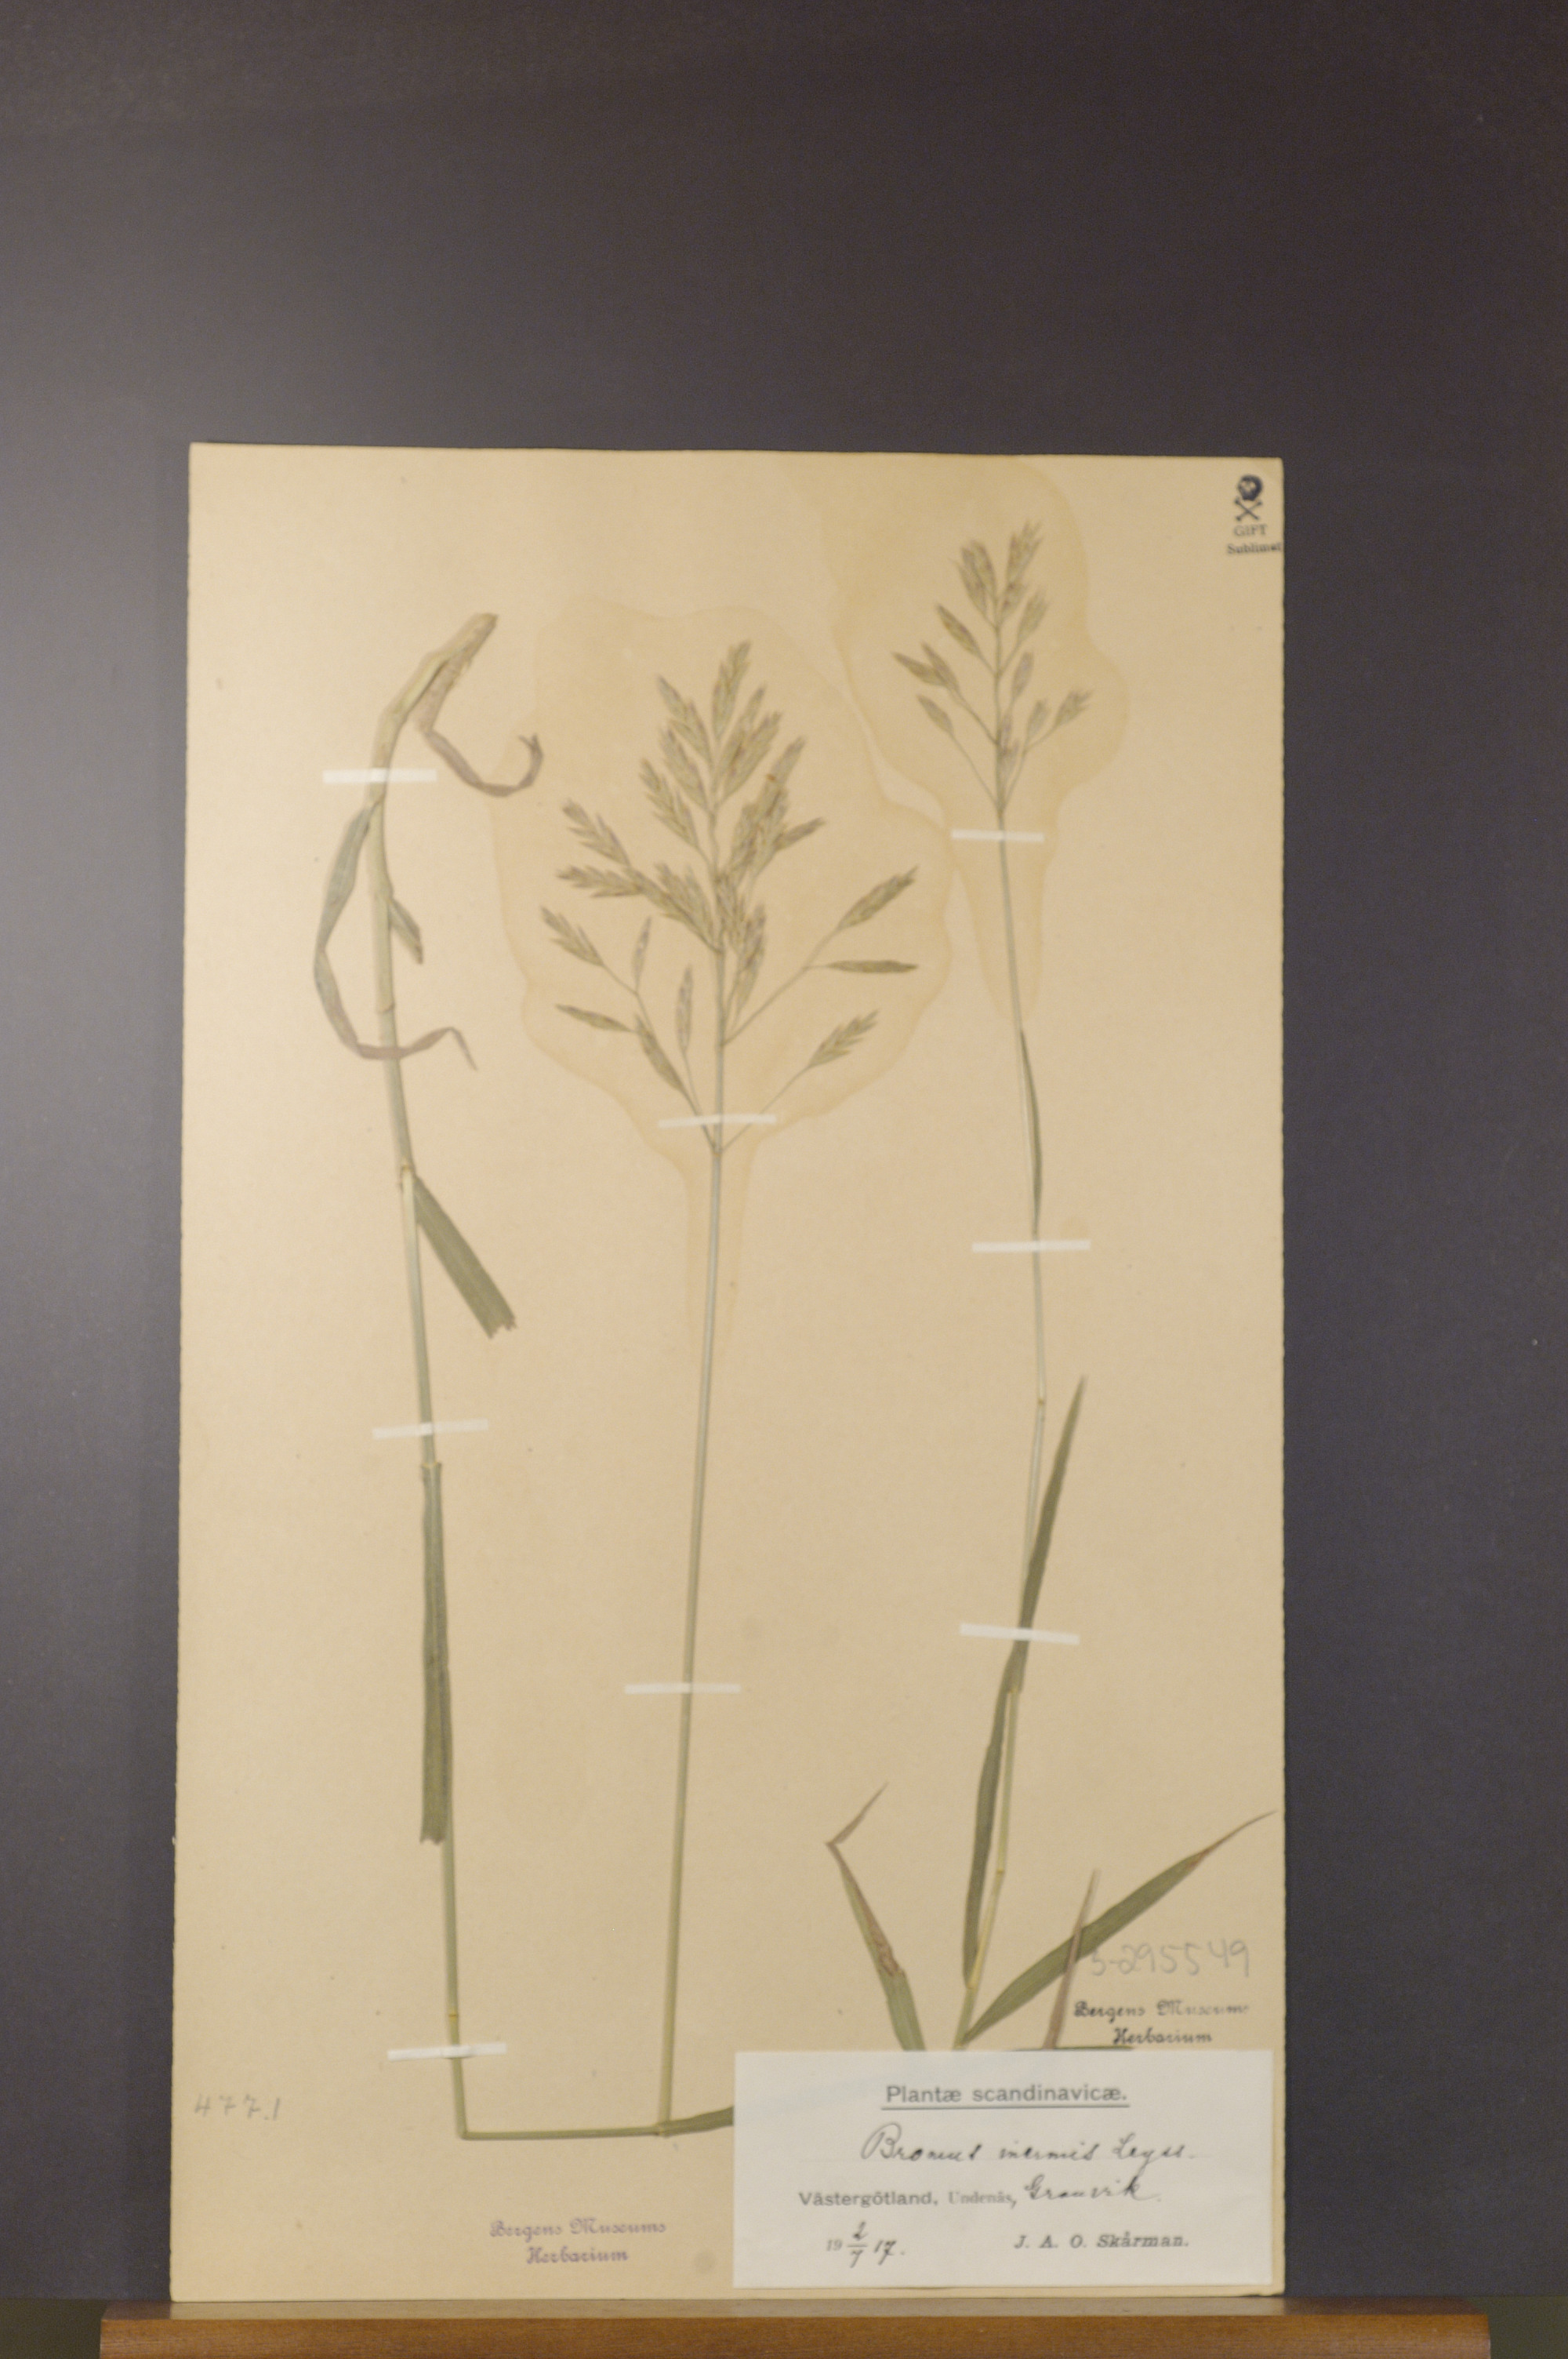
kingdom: Plantae
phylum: Tracheophyta
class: Liliopsida
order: Poales
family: Poaceae
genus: Bromus
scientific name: Bromus inermis
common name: Smooth brome
